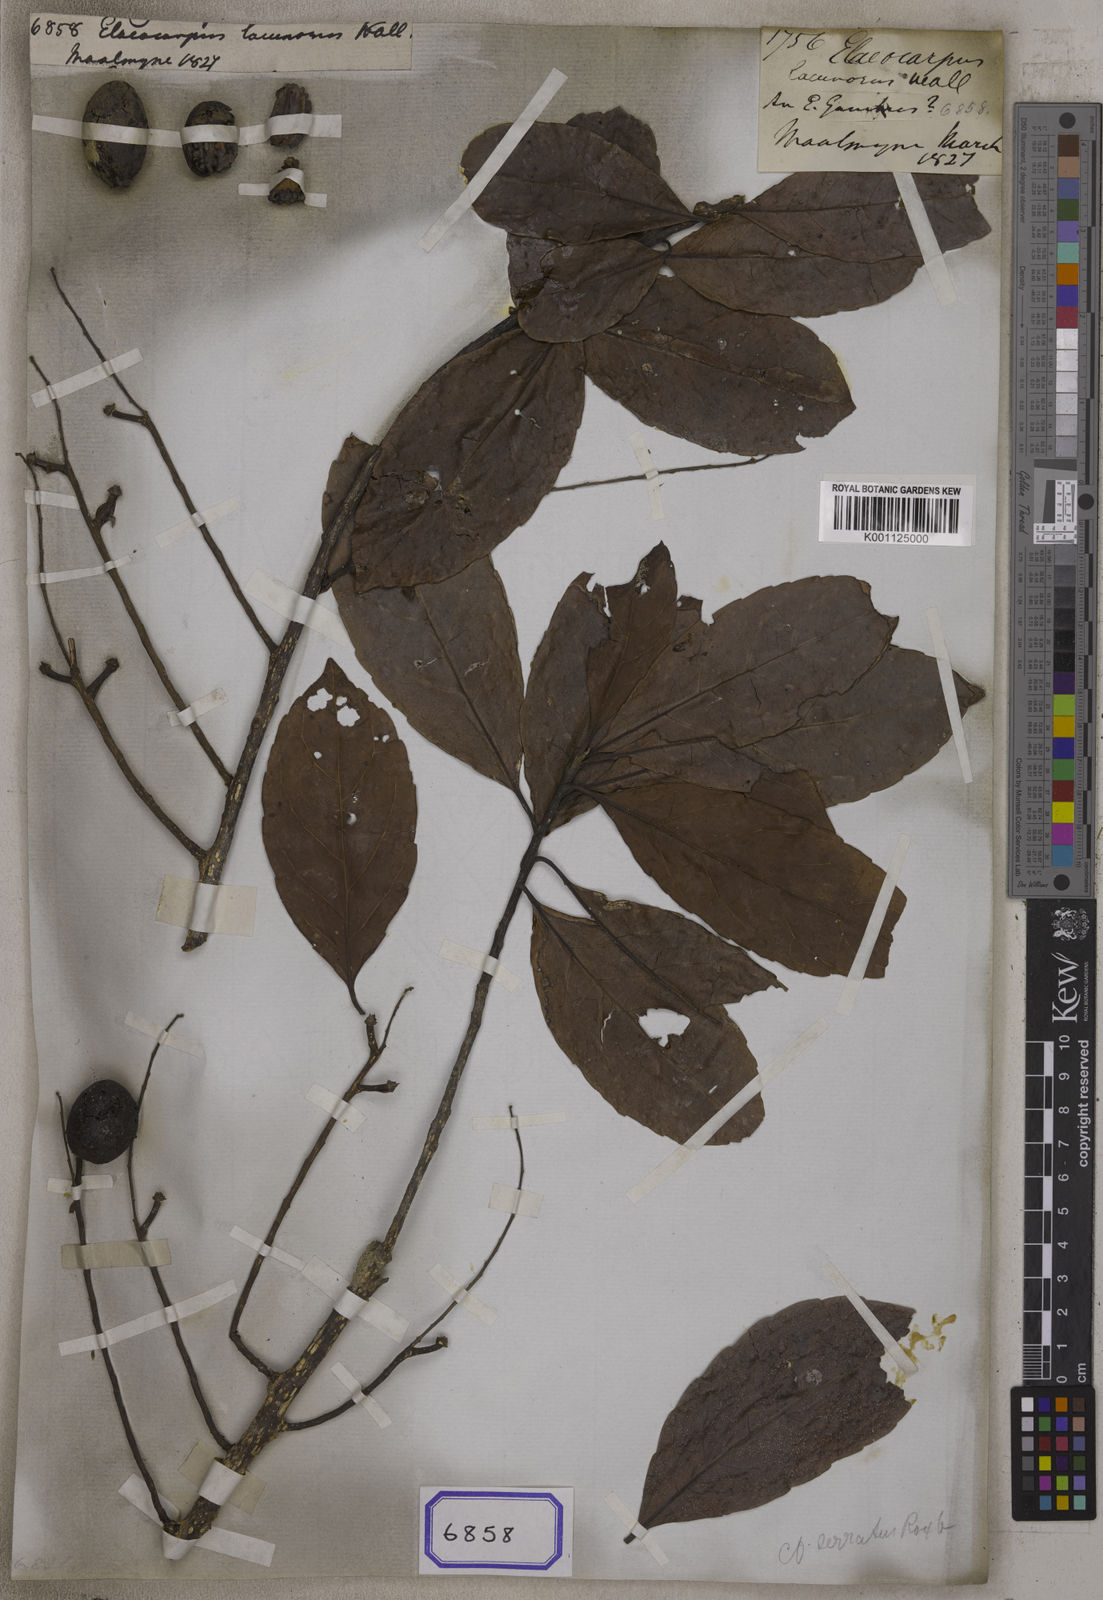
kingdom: Plantae
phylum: Tracheophyta
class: Magnoliopsida
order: Oxalidales
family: Elaeocarpaceae
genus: Elaeocarpus
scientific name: Elaeocarpus
